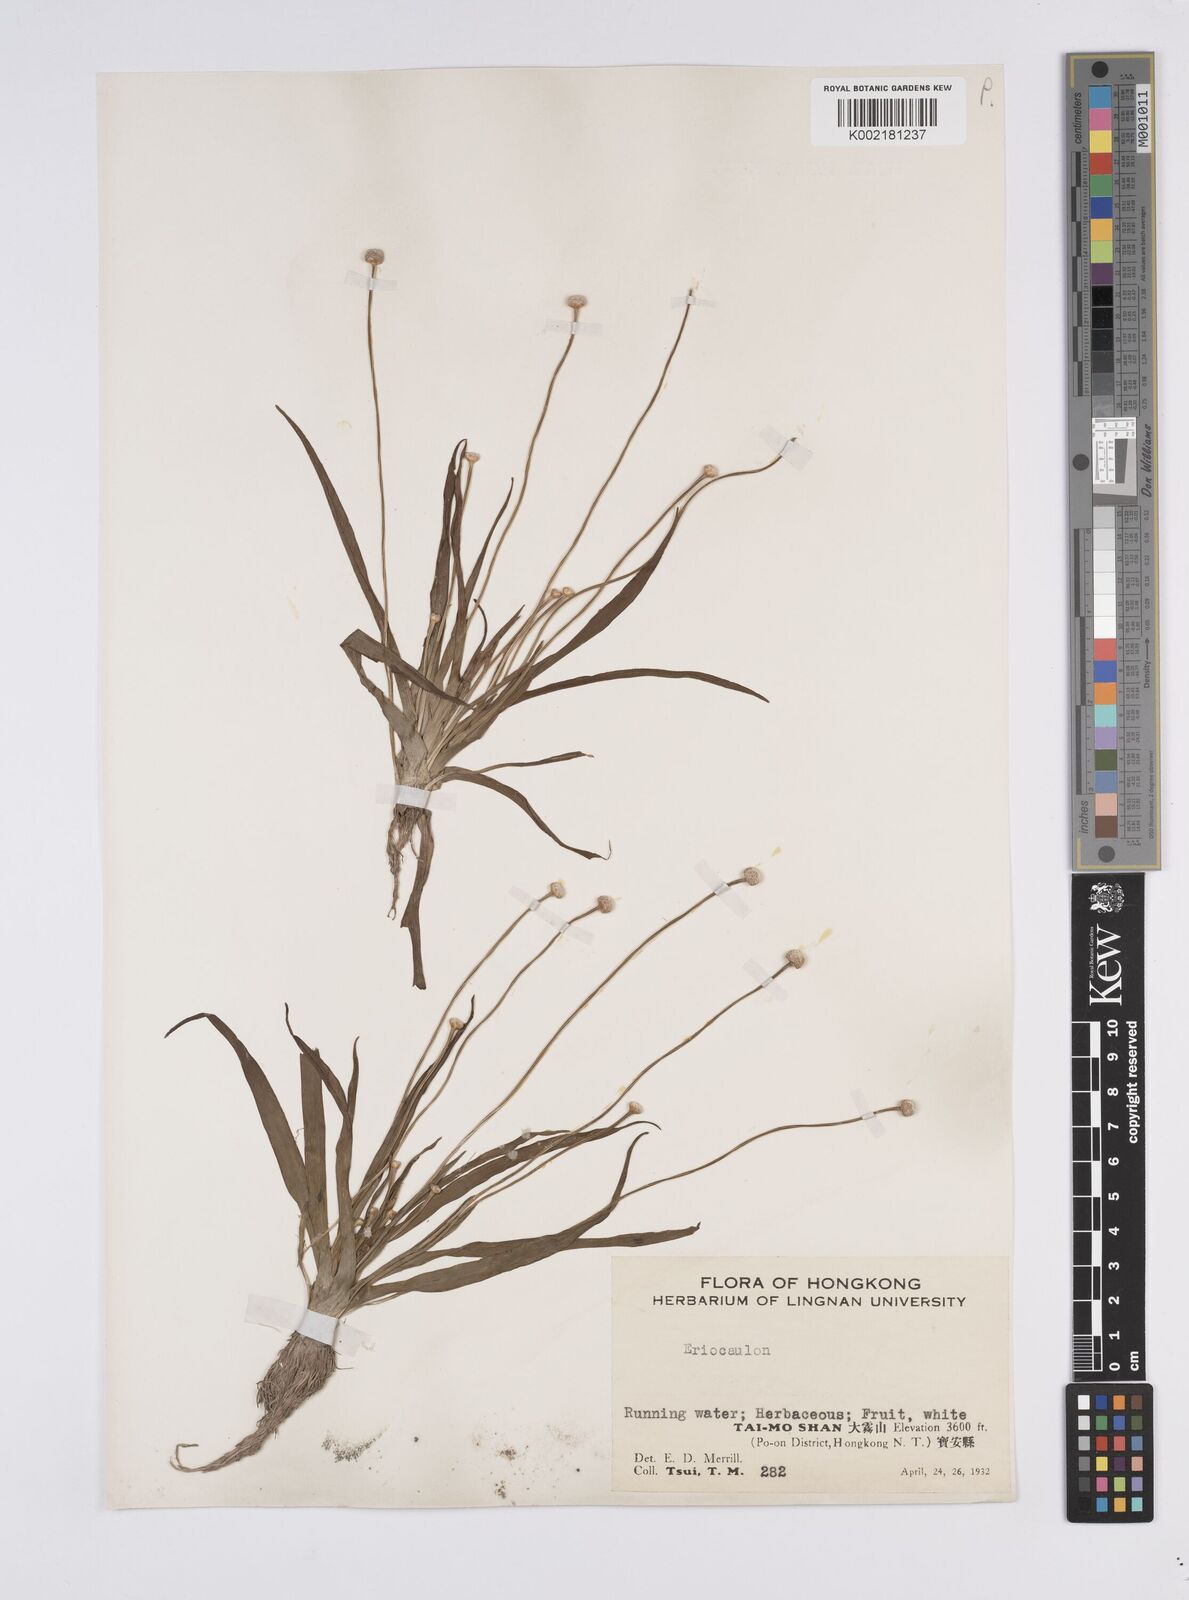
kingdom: Plantae
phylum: Tracheophyta
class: Liliopsida
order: Poales
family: Eriocaulaceae
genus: Eriocaulon
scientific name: Eriocaulon
